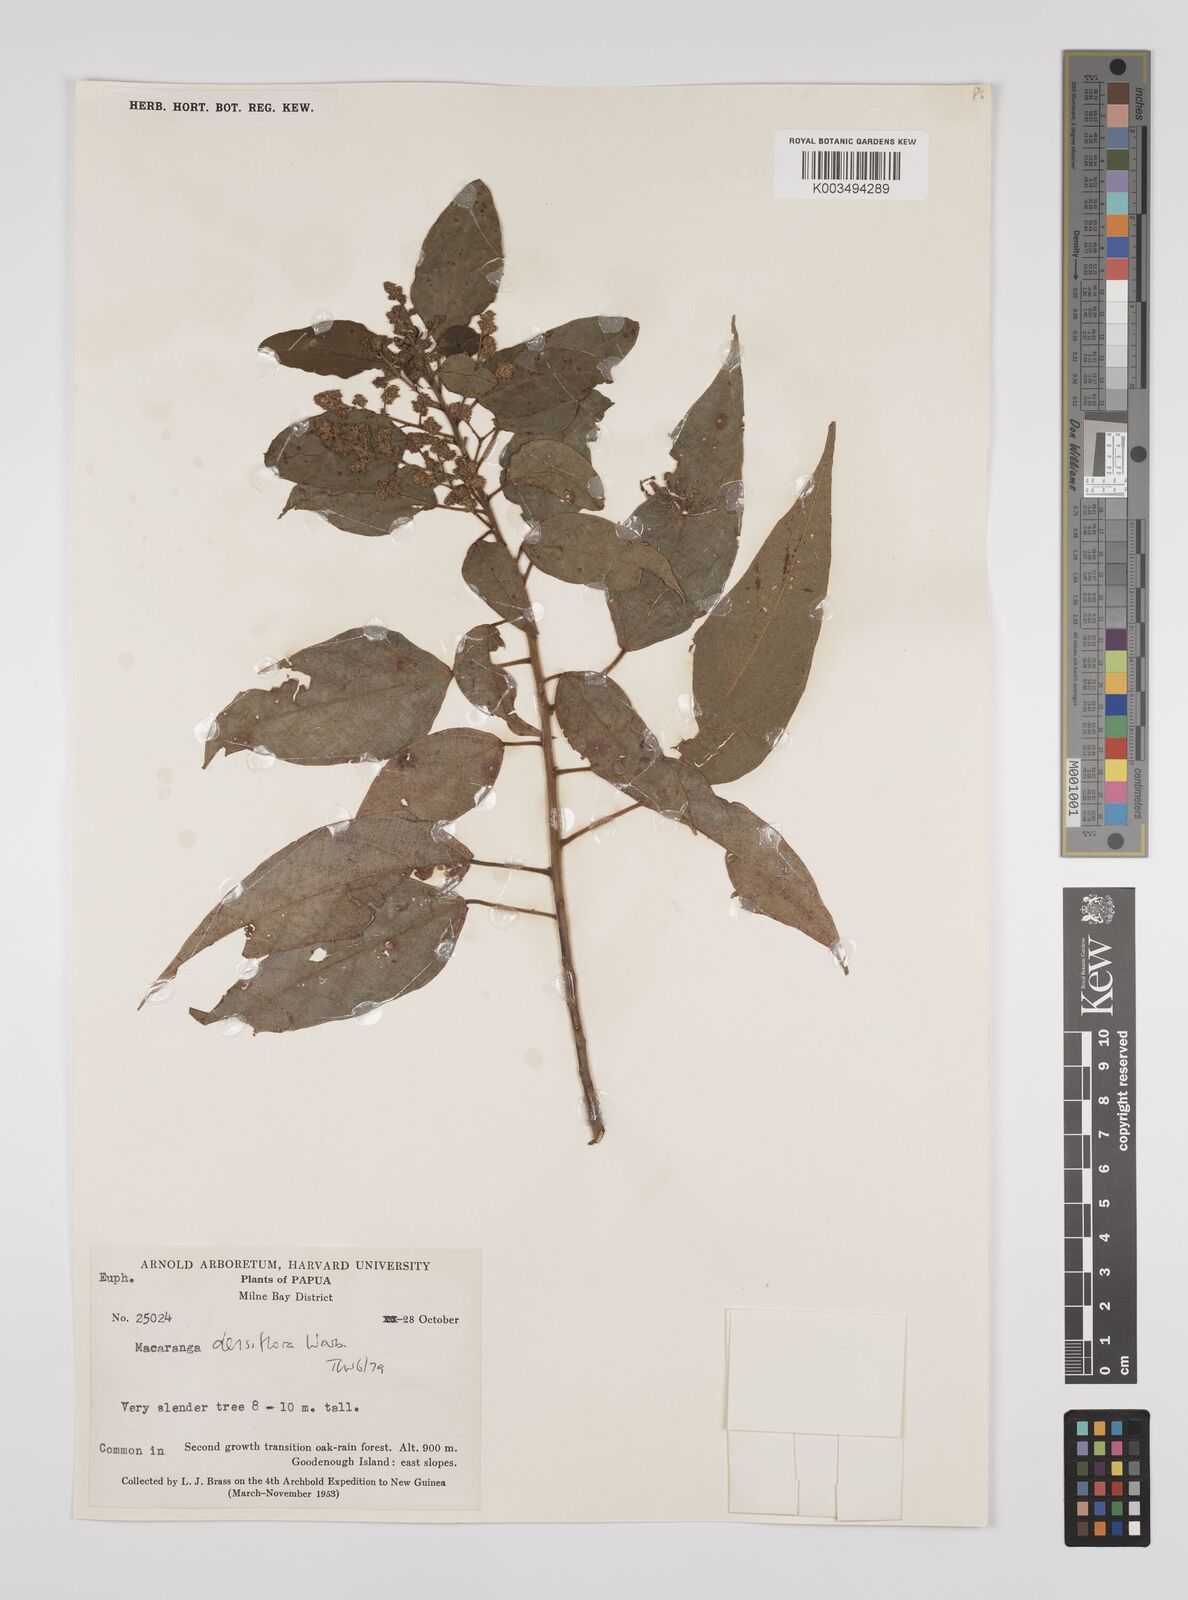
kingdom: Plantae
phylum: Tracheophyta
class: Magnoliopsida
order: Malpighiales
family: Euphorbiaceae
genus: Macaranga
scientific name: Macaranga densiflora
